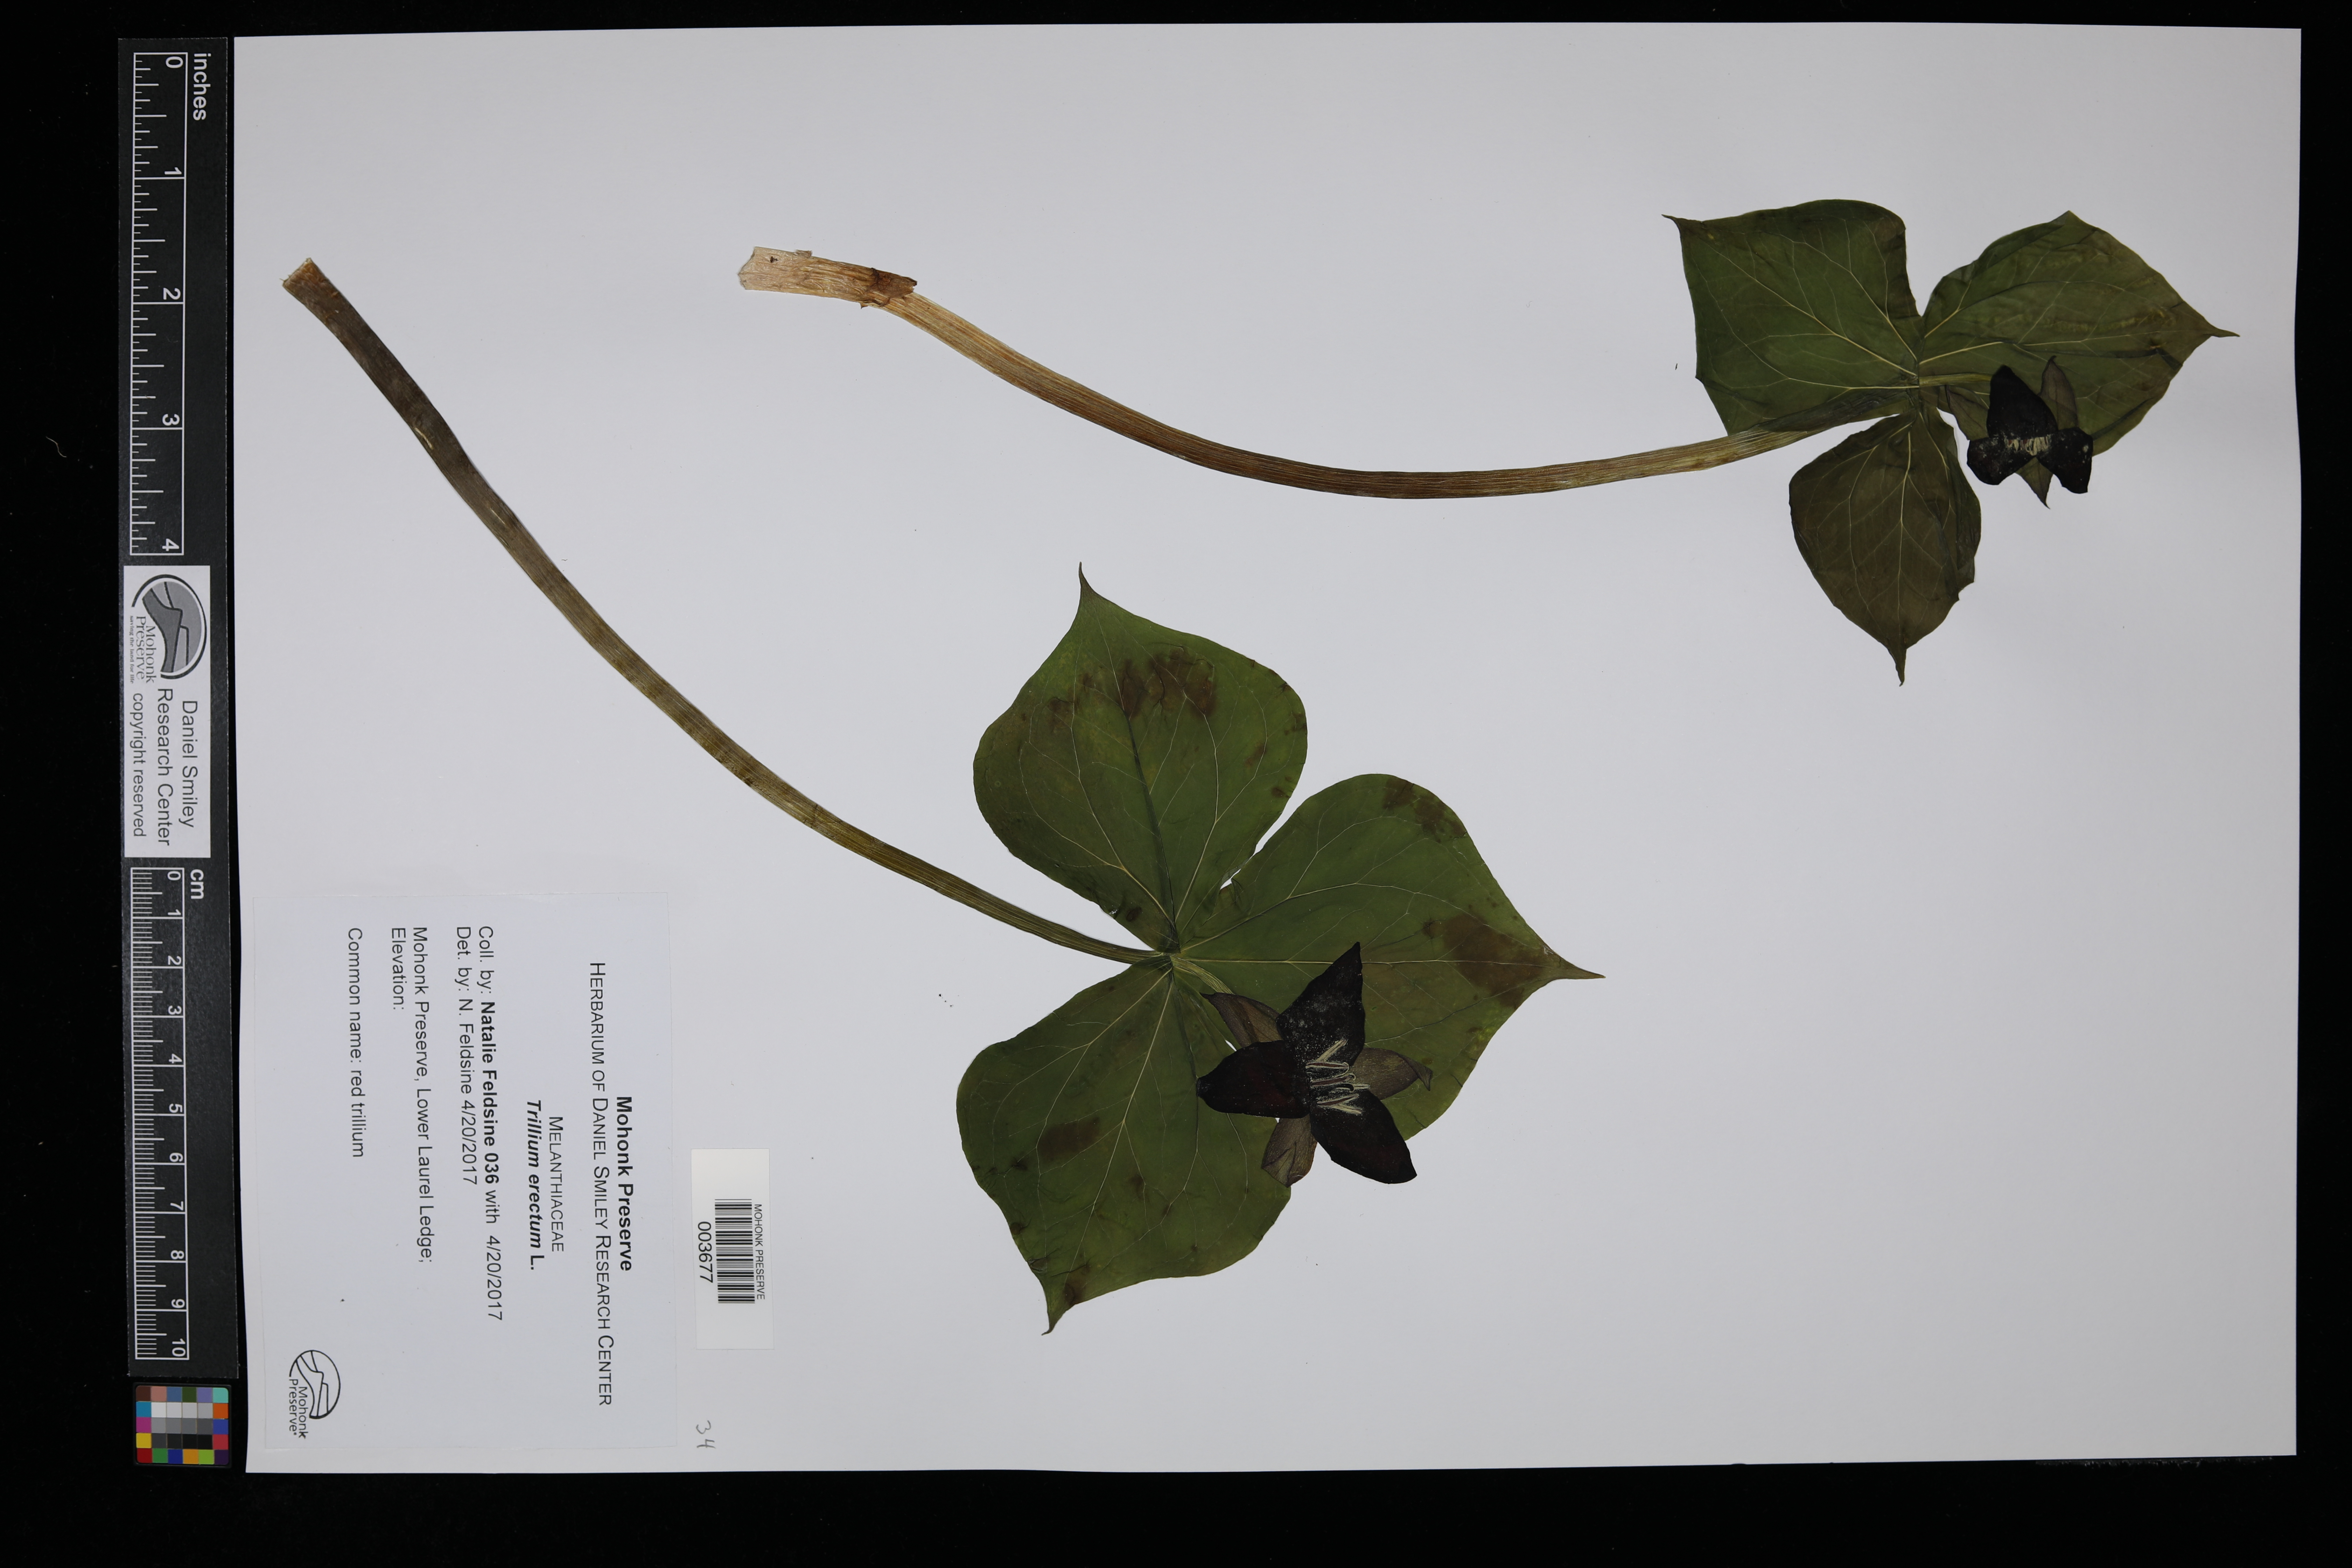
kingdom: Plantae
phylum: Tracheophyta
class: Liliopsida
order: Liliales
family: Melanthiaceae
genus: Trillium
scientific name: Trillium erectum
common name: Purple trillium
